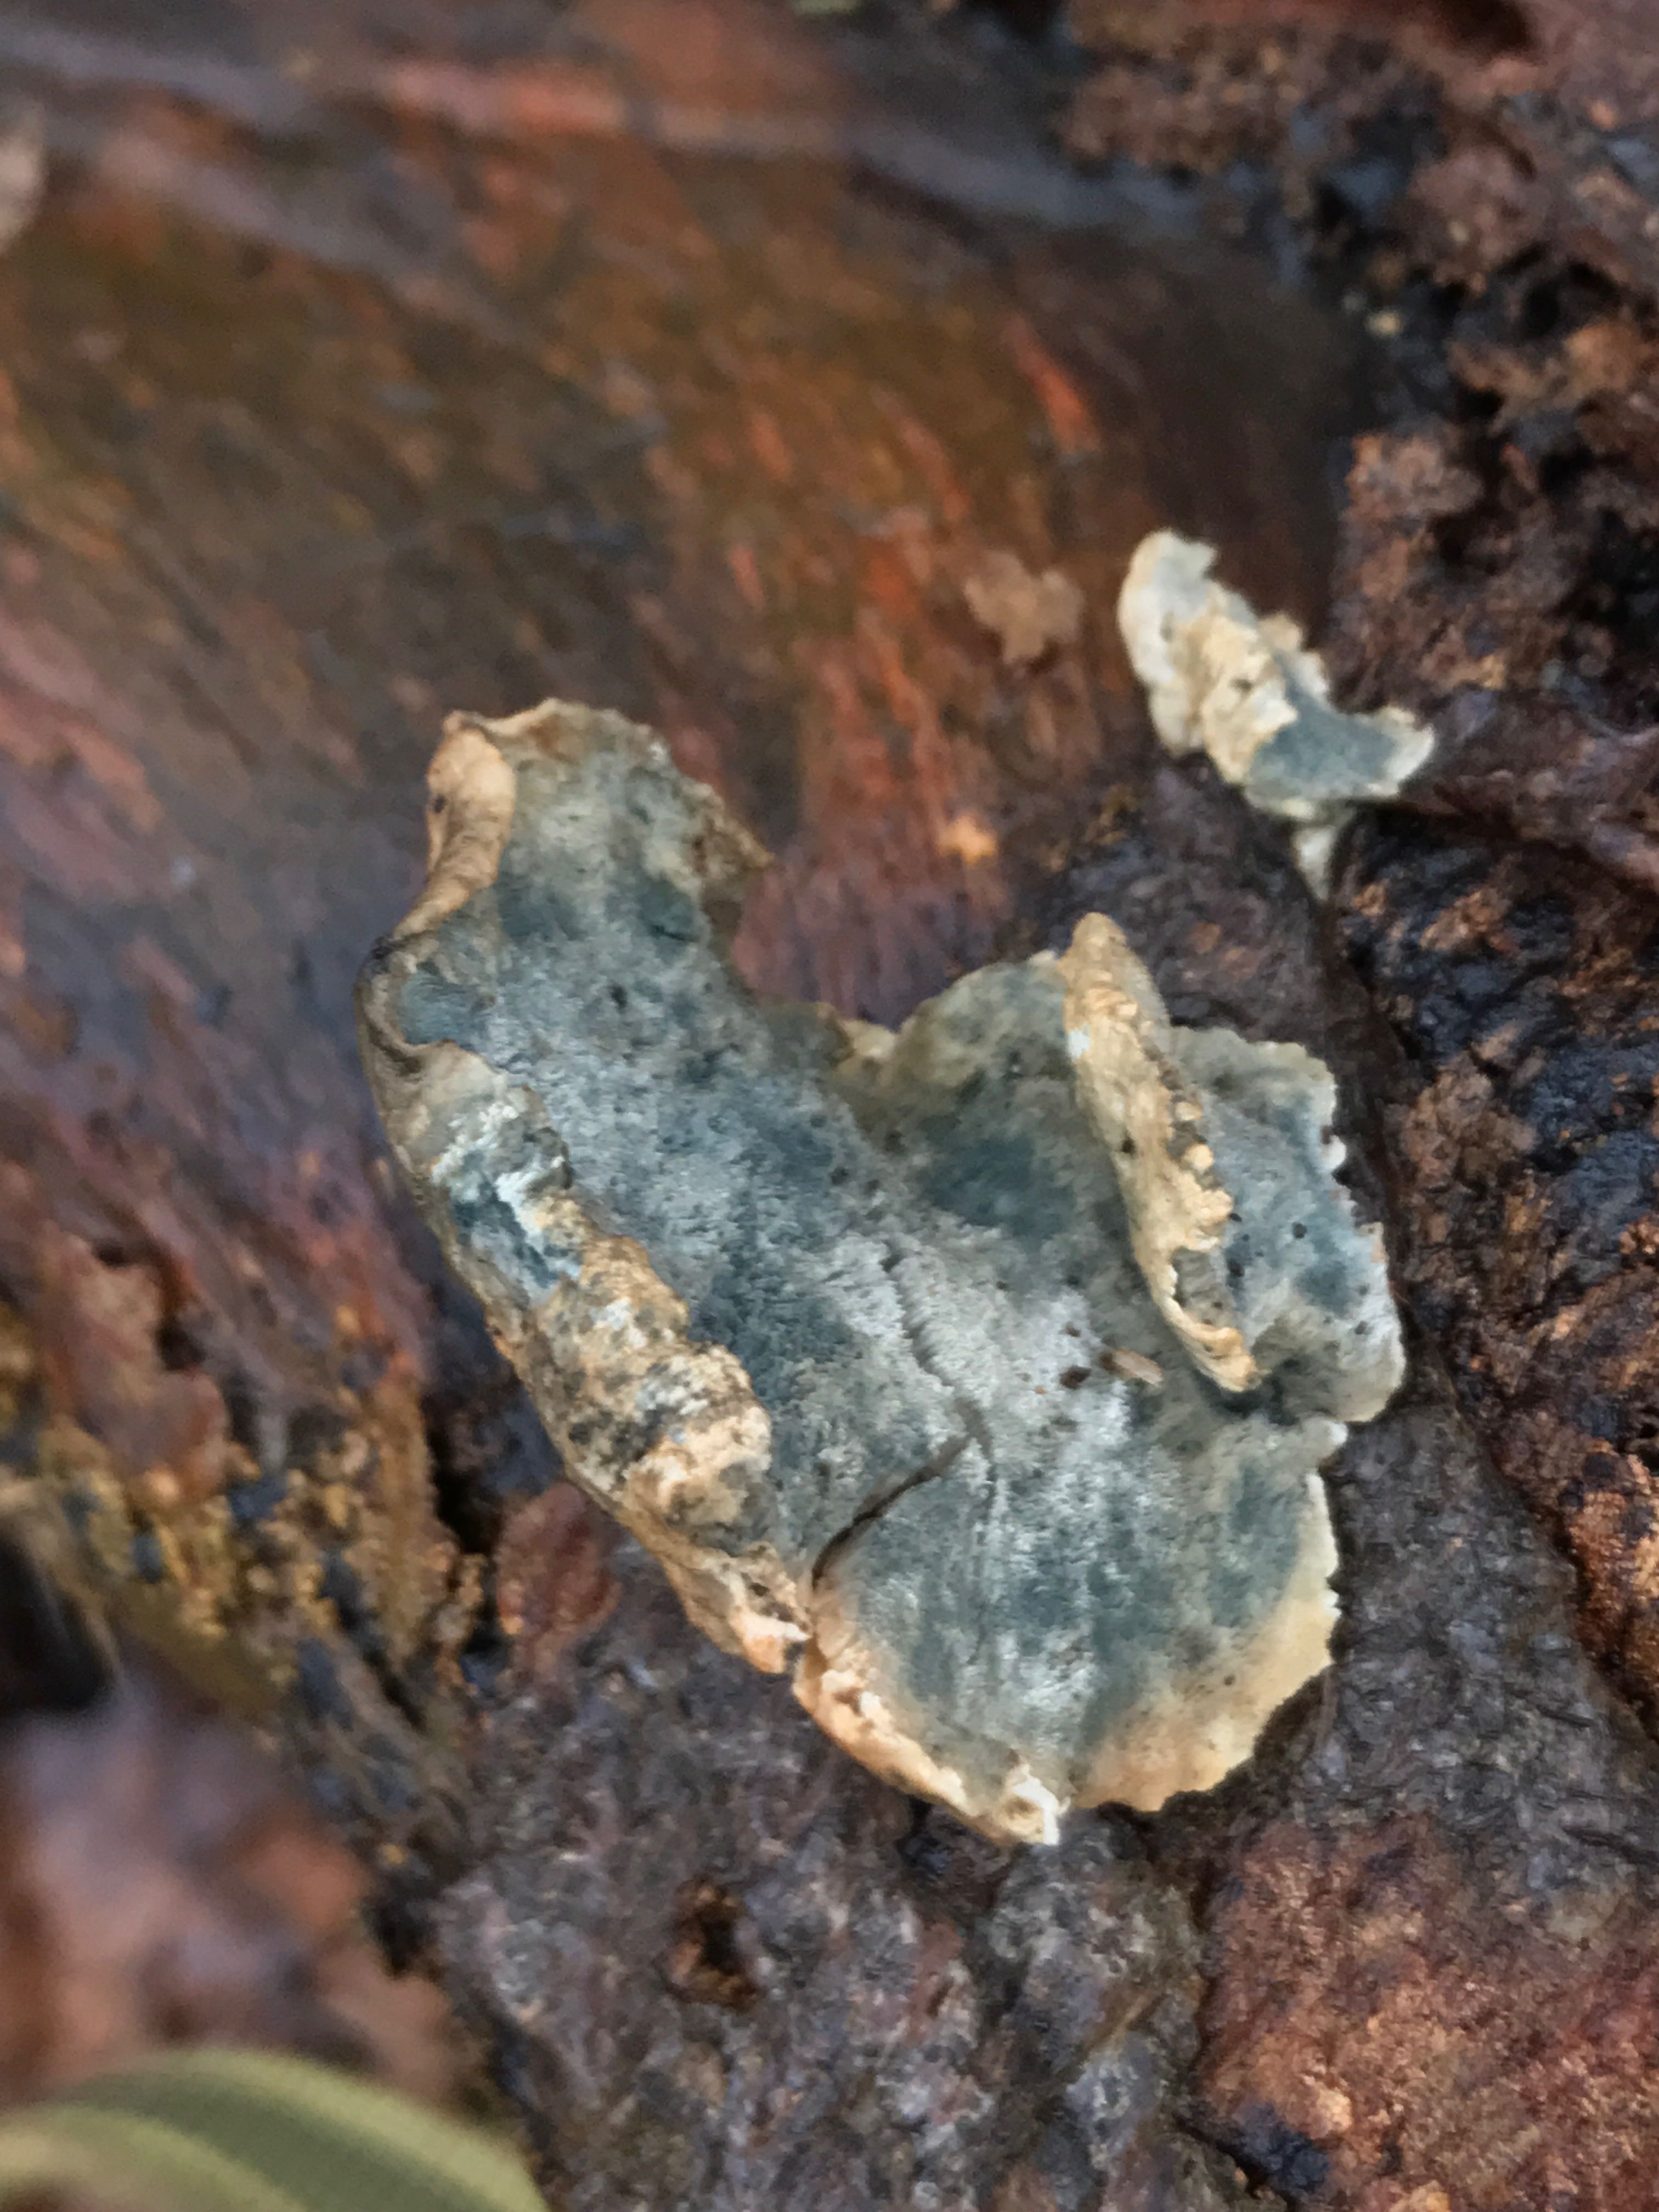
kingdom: Fungi
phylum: Basidiomycota
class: Agaricomycetes
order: Polyporales
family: Polyporaceae
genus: Cyanosporus
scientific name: Cyanosporus caesius
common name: blålig kødporesvamp
